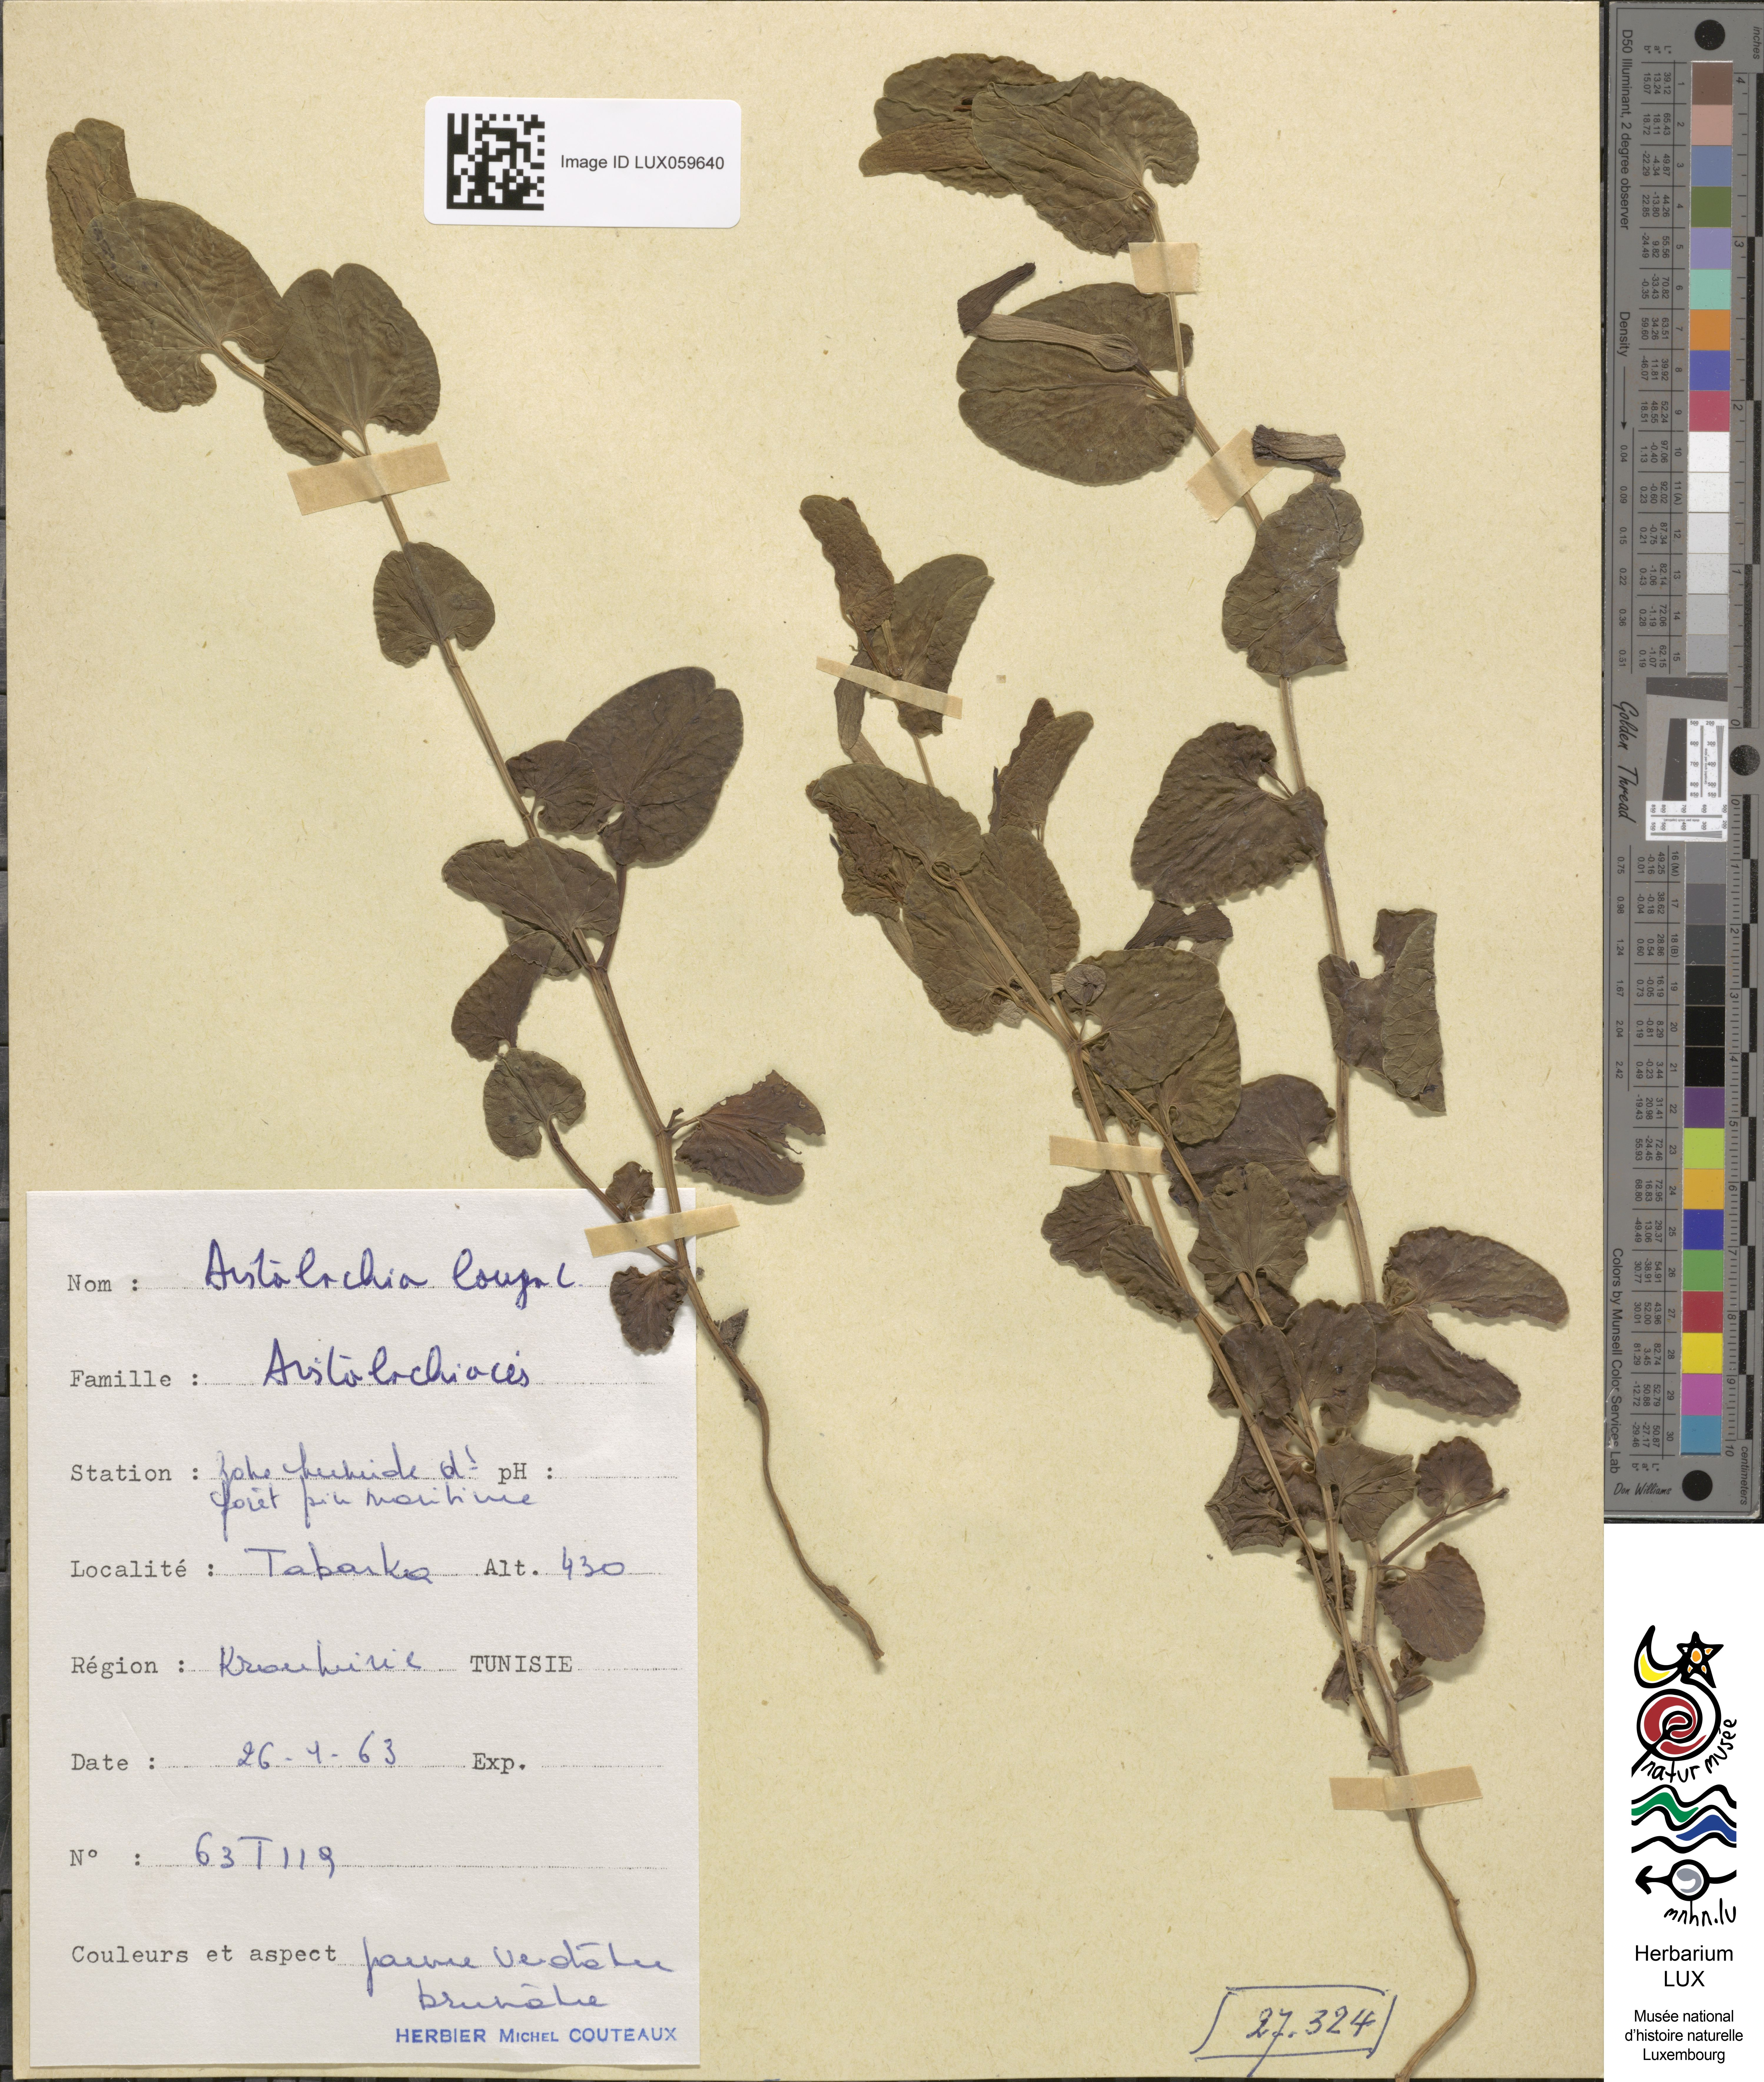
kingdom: Plantae
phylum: Tracheophyta
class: Magnoliopsida
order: Piperales
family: Aristolochiaceae
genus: Aristolochia
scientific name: Aristolochia fontanesii
